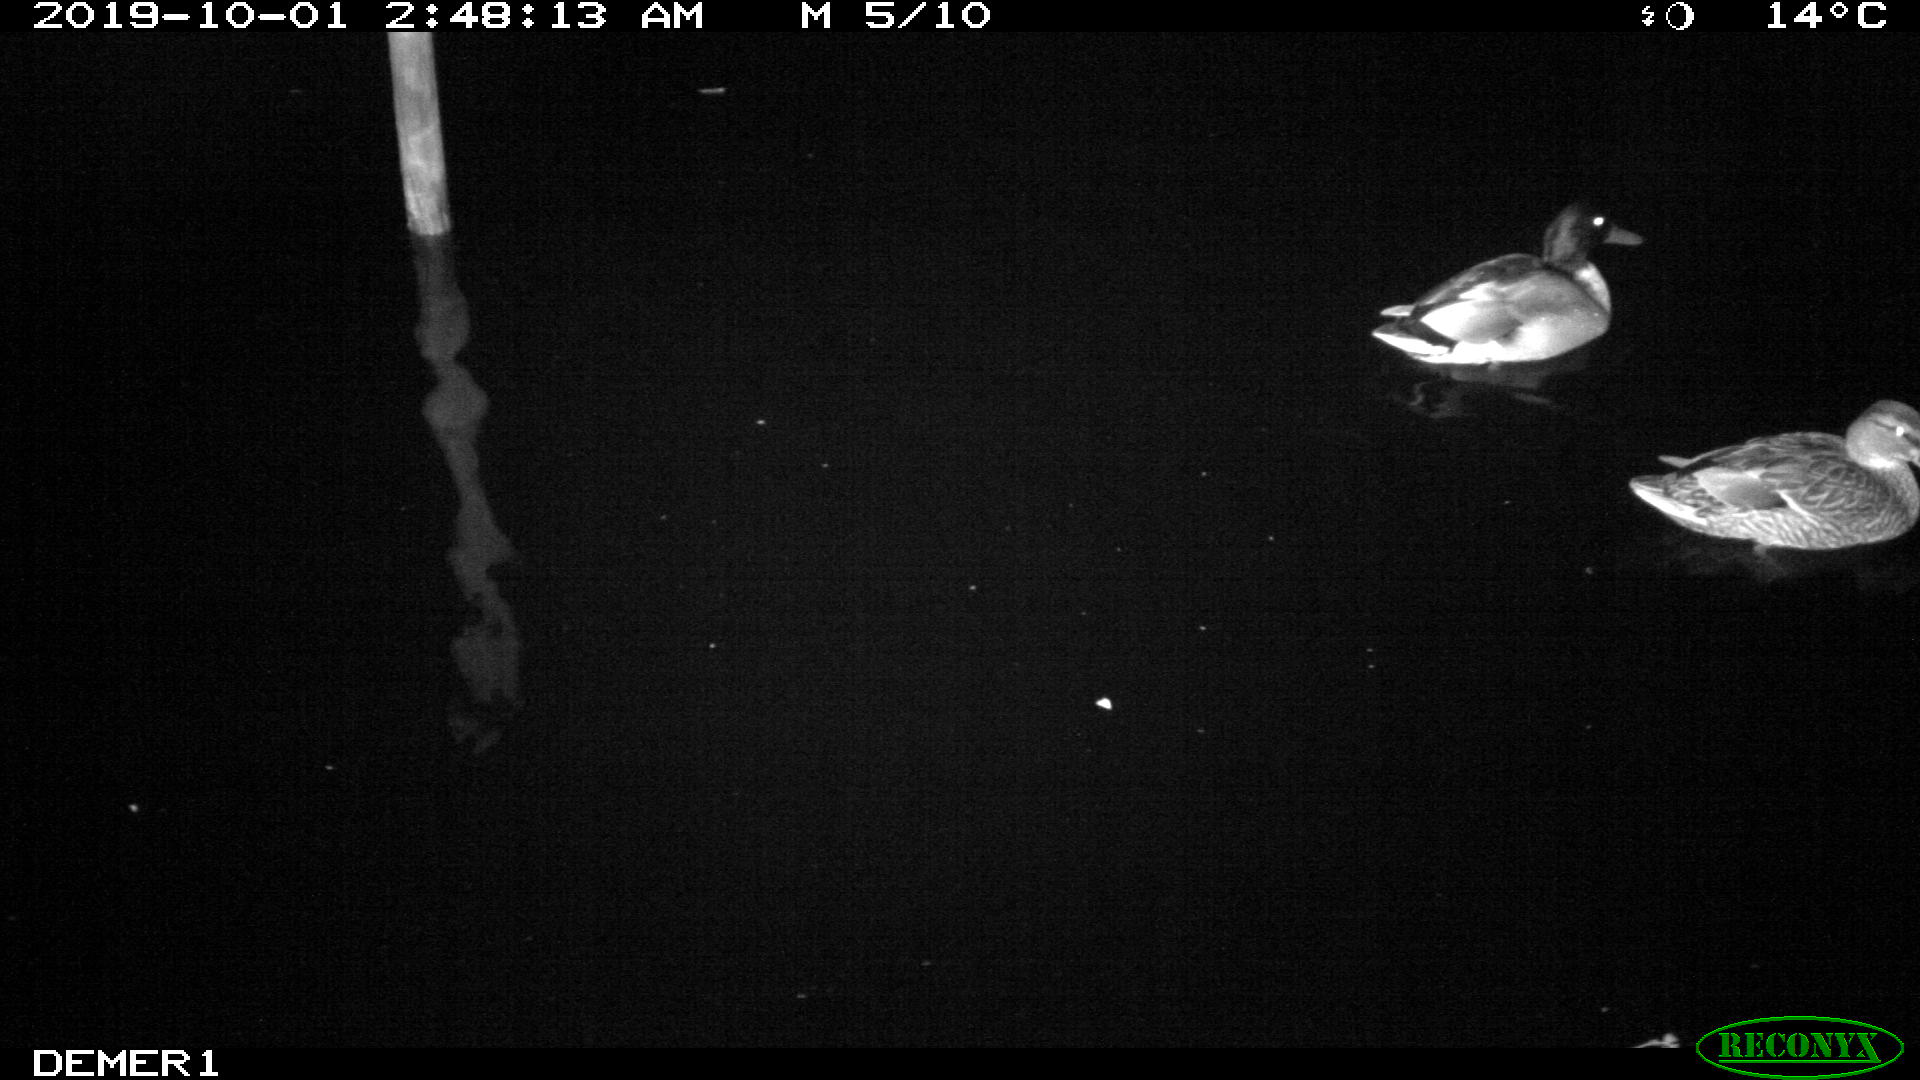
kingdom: Animalia
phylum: Chordata
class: Aves
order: Anseriformes
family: Anatidae
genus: Anas
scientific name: Anas platyrhynchos
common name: Mallard
